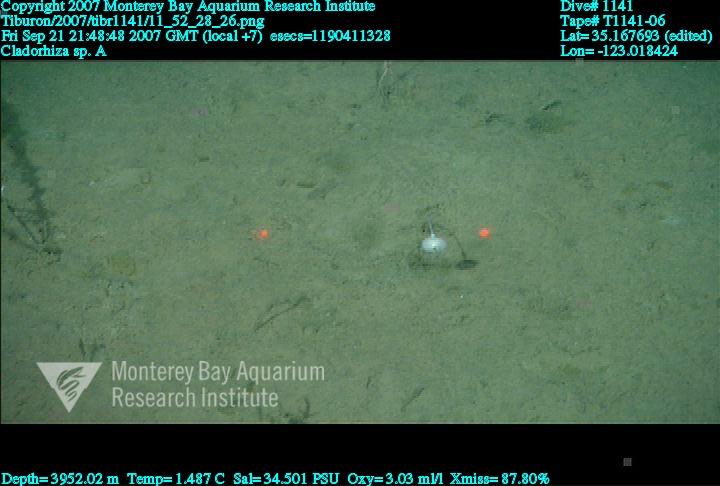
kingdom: Animalia
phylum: Porifera
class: Demospongiae
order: Poecilosclerida
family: Cladorhizidae
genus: Cladorhiza
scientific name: Cladorhiza
